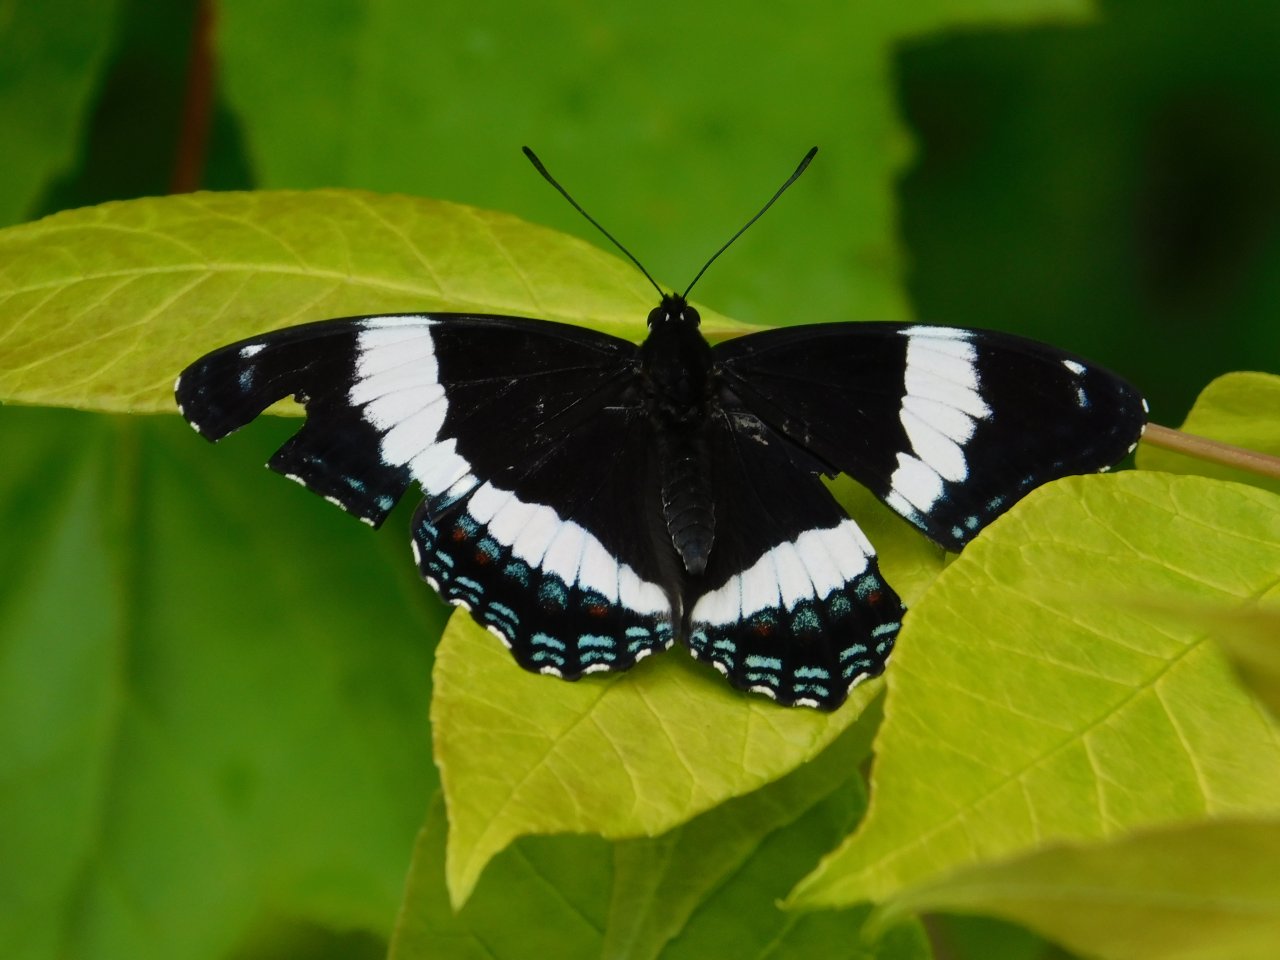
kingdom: Animalia
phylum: Arthropoda
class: Insecta
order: Lepidoptera
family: Nymphalidae
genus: Limenitis
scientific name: Limenitis arthemis
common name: Red-spotted Admiral
